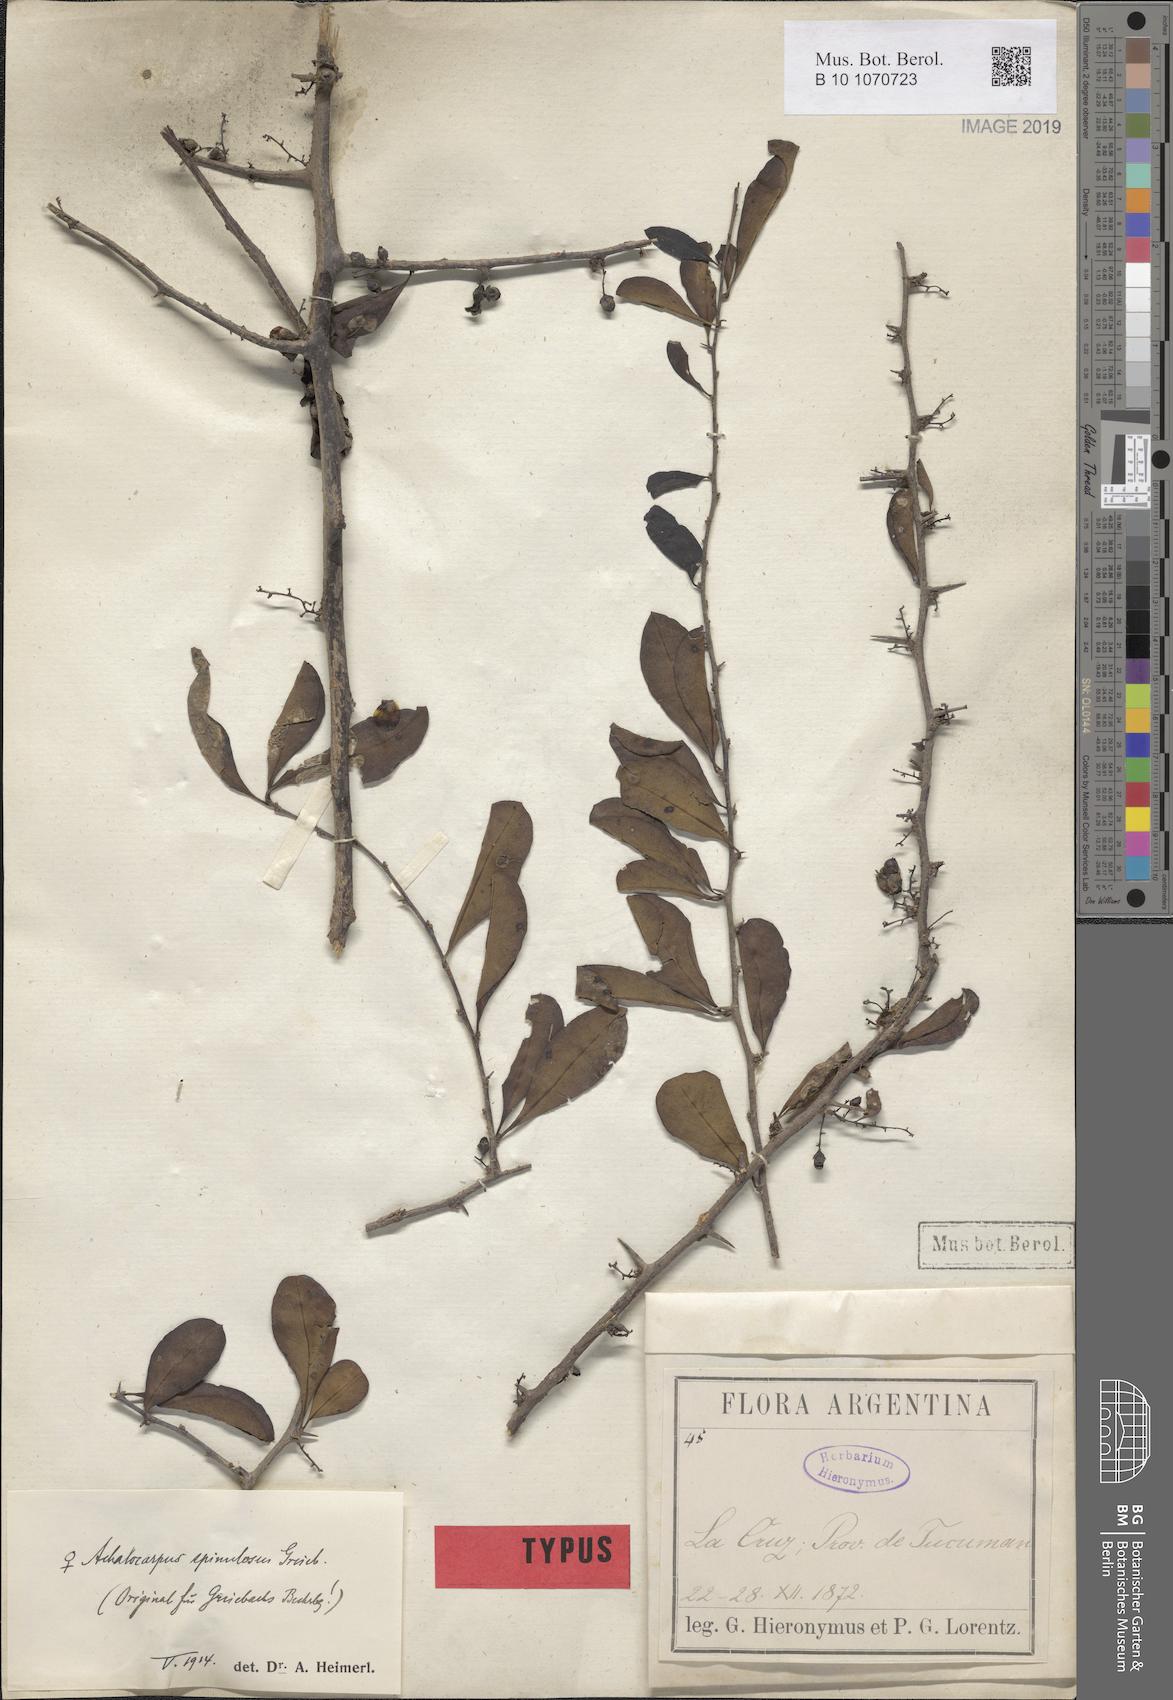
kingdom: Plantae
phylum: Tracheophyta
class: Magnoliopsida
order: Caryophyllales
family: Achatocarpaceae
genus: Achatocarpus
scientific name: Achatocarpus praecox
